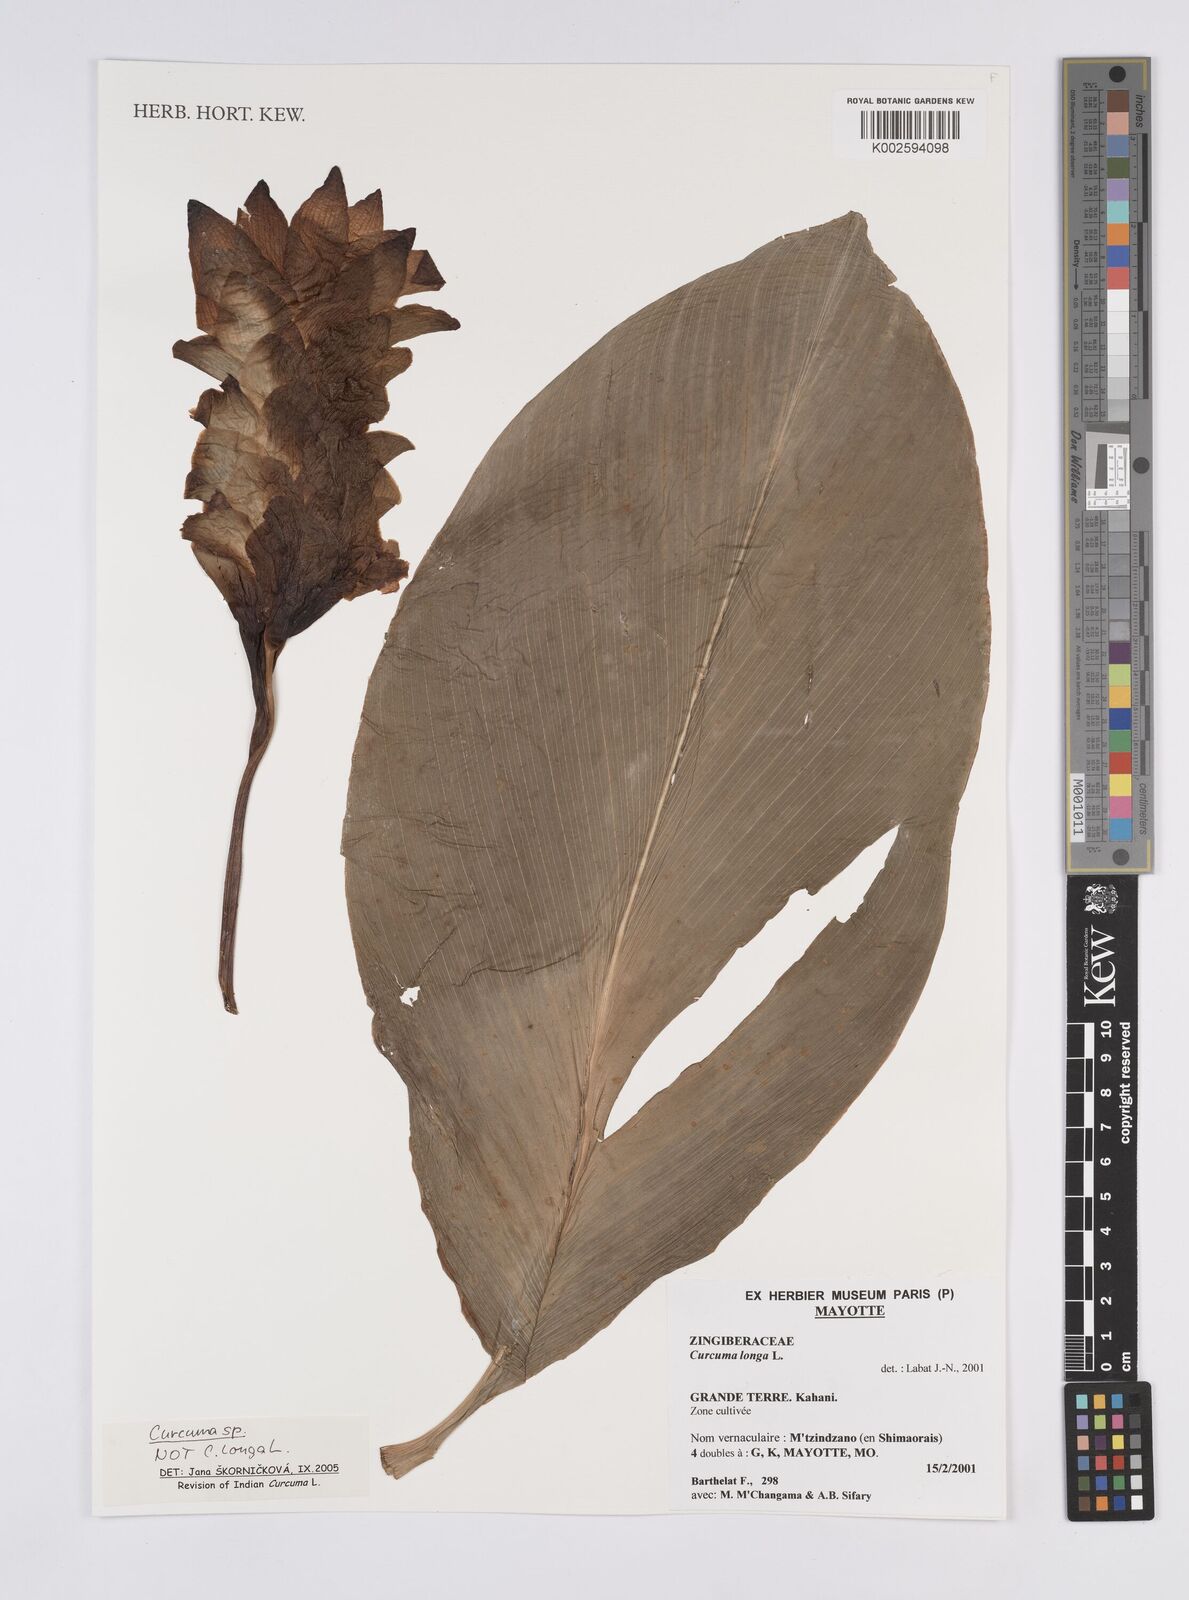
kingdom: Plantae
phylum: Tracheophyta
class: Liliopsida
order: Zingiberales
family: Zingiberaceae
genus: Curcuma
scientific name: Curcuma
